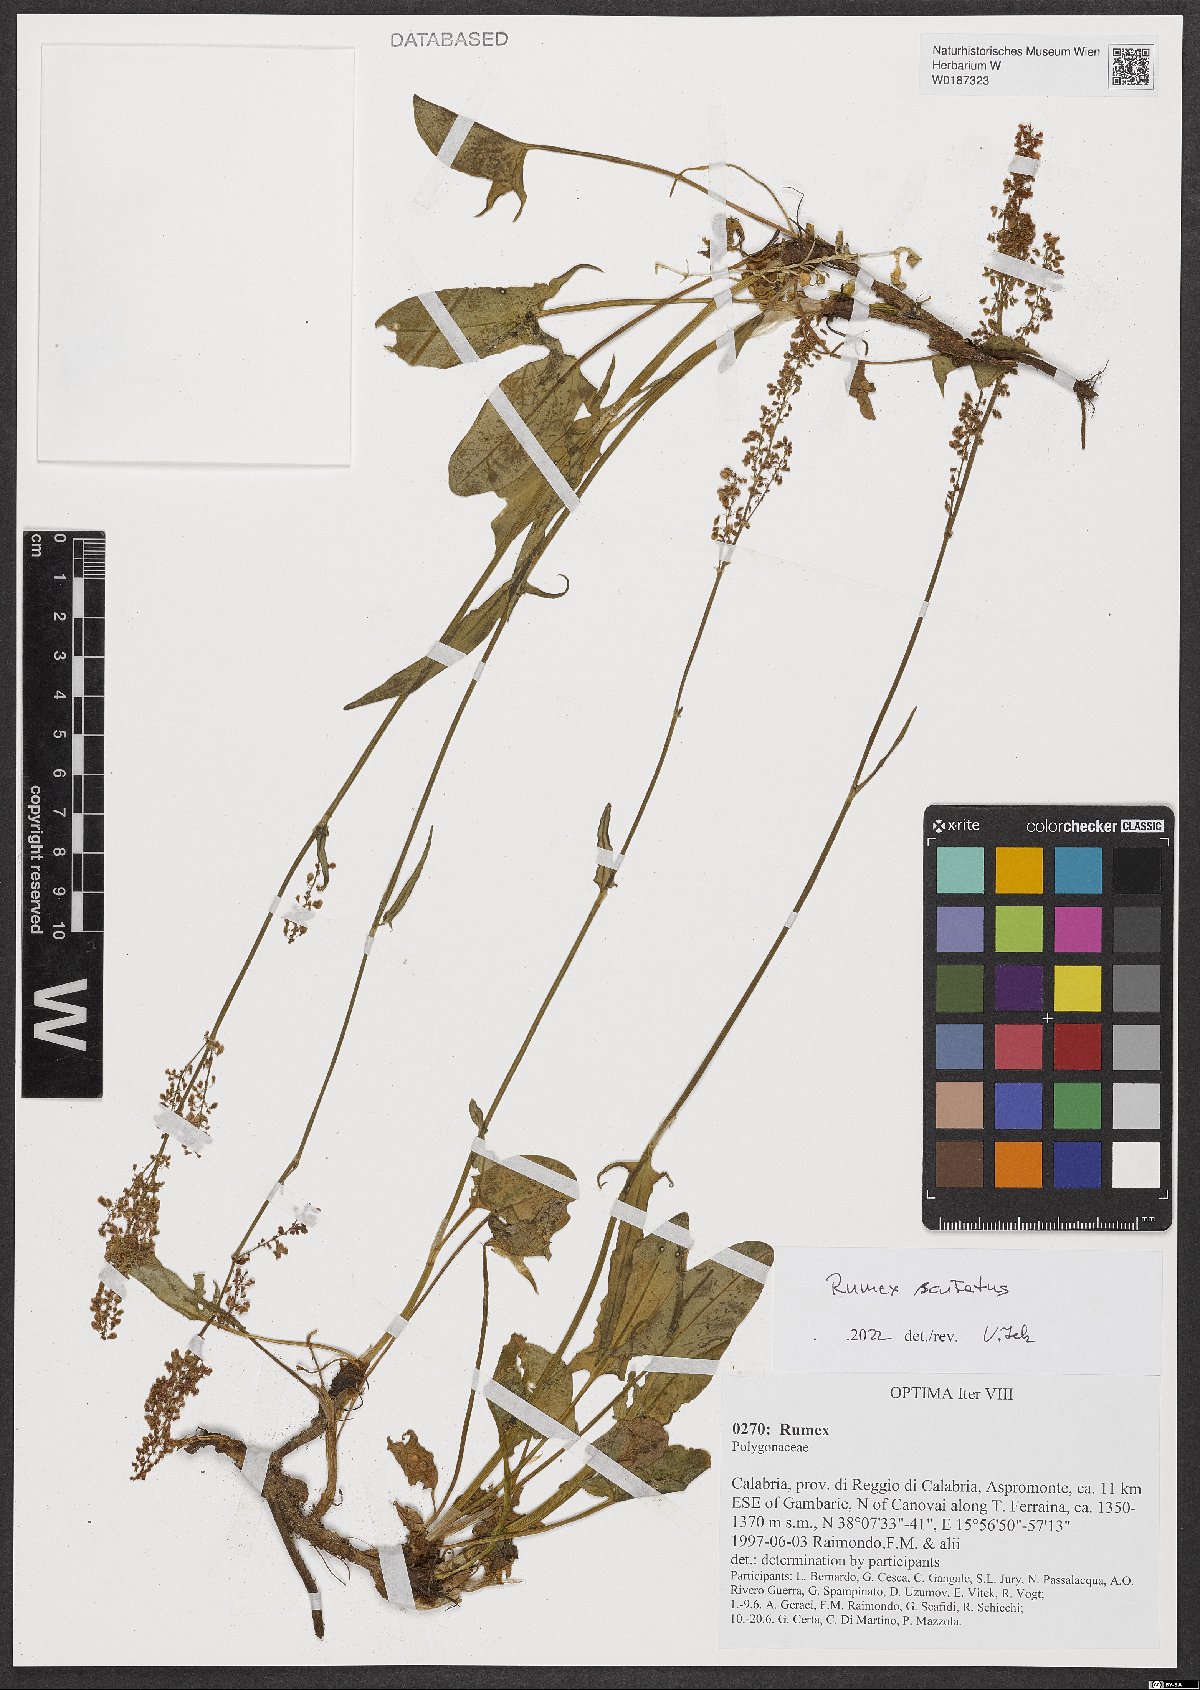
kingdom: Plantae
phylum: Tracheophyta
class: Magnoliopsida
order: Caryophyllales
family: Polygonaceae
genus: Rumex
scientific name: Rumex scutatus
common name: French sorrel
